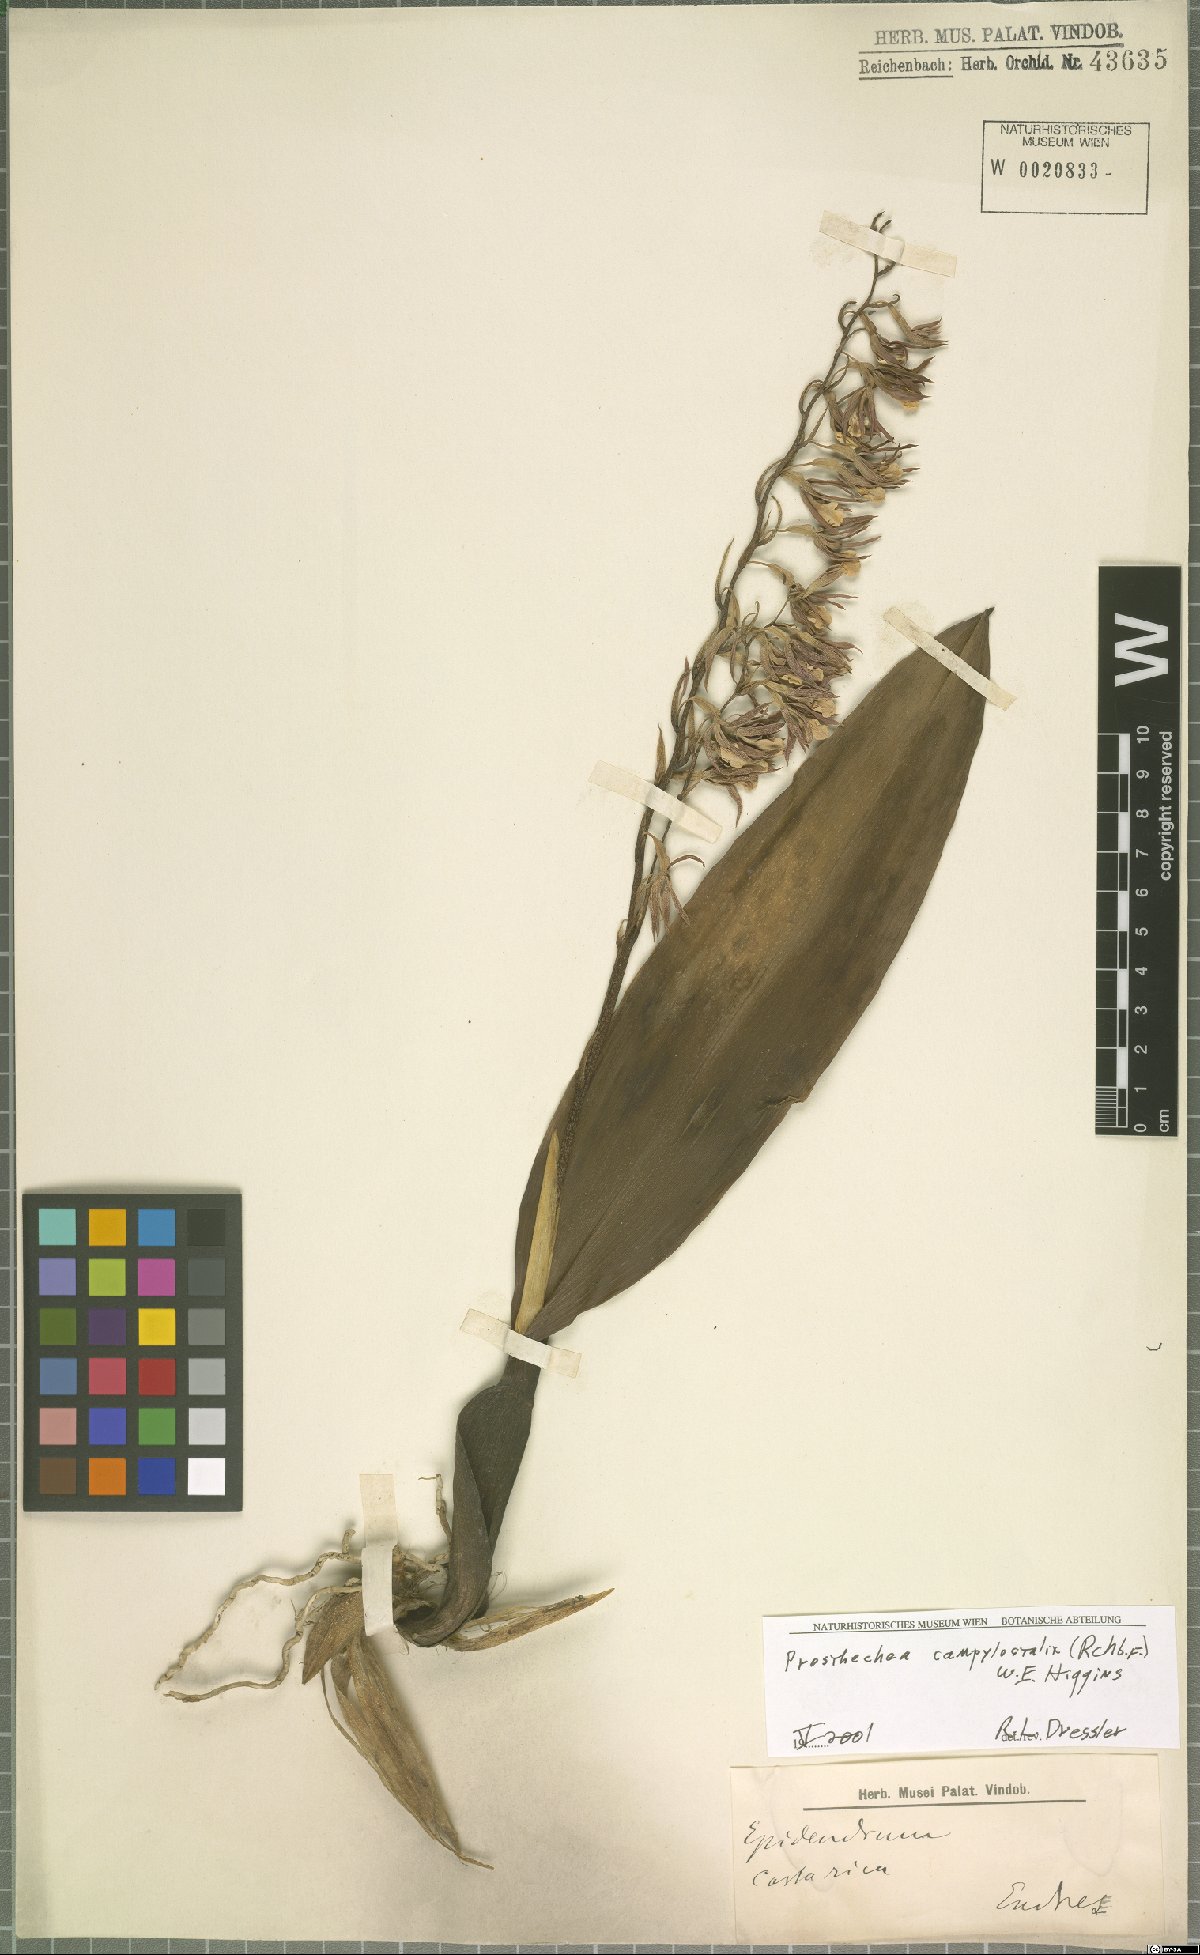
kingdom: Plantae
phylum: Tracheophyta
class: Liliopsida
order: Asparagales
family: Orchidaceae
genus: Prosthechea
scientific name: Prosthechea campylostalix
